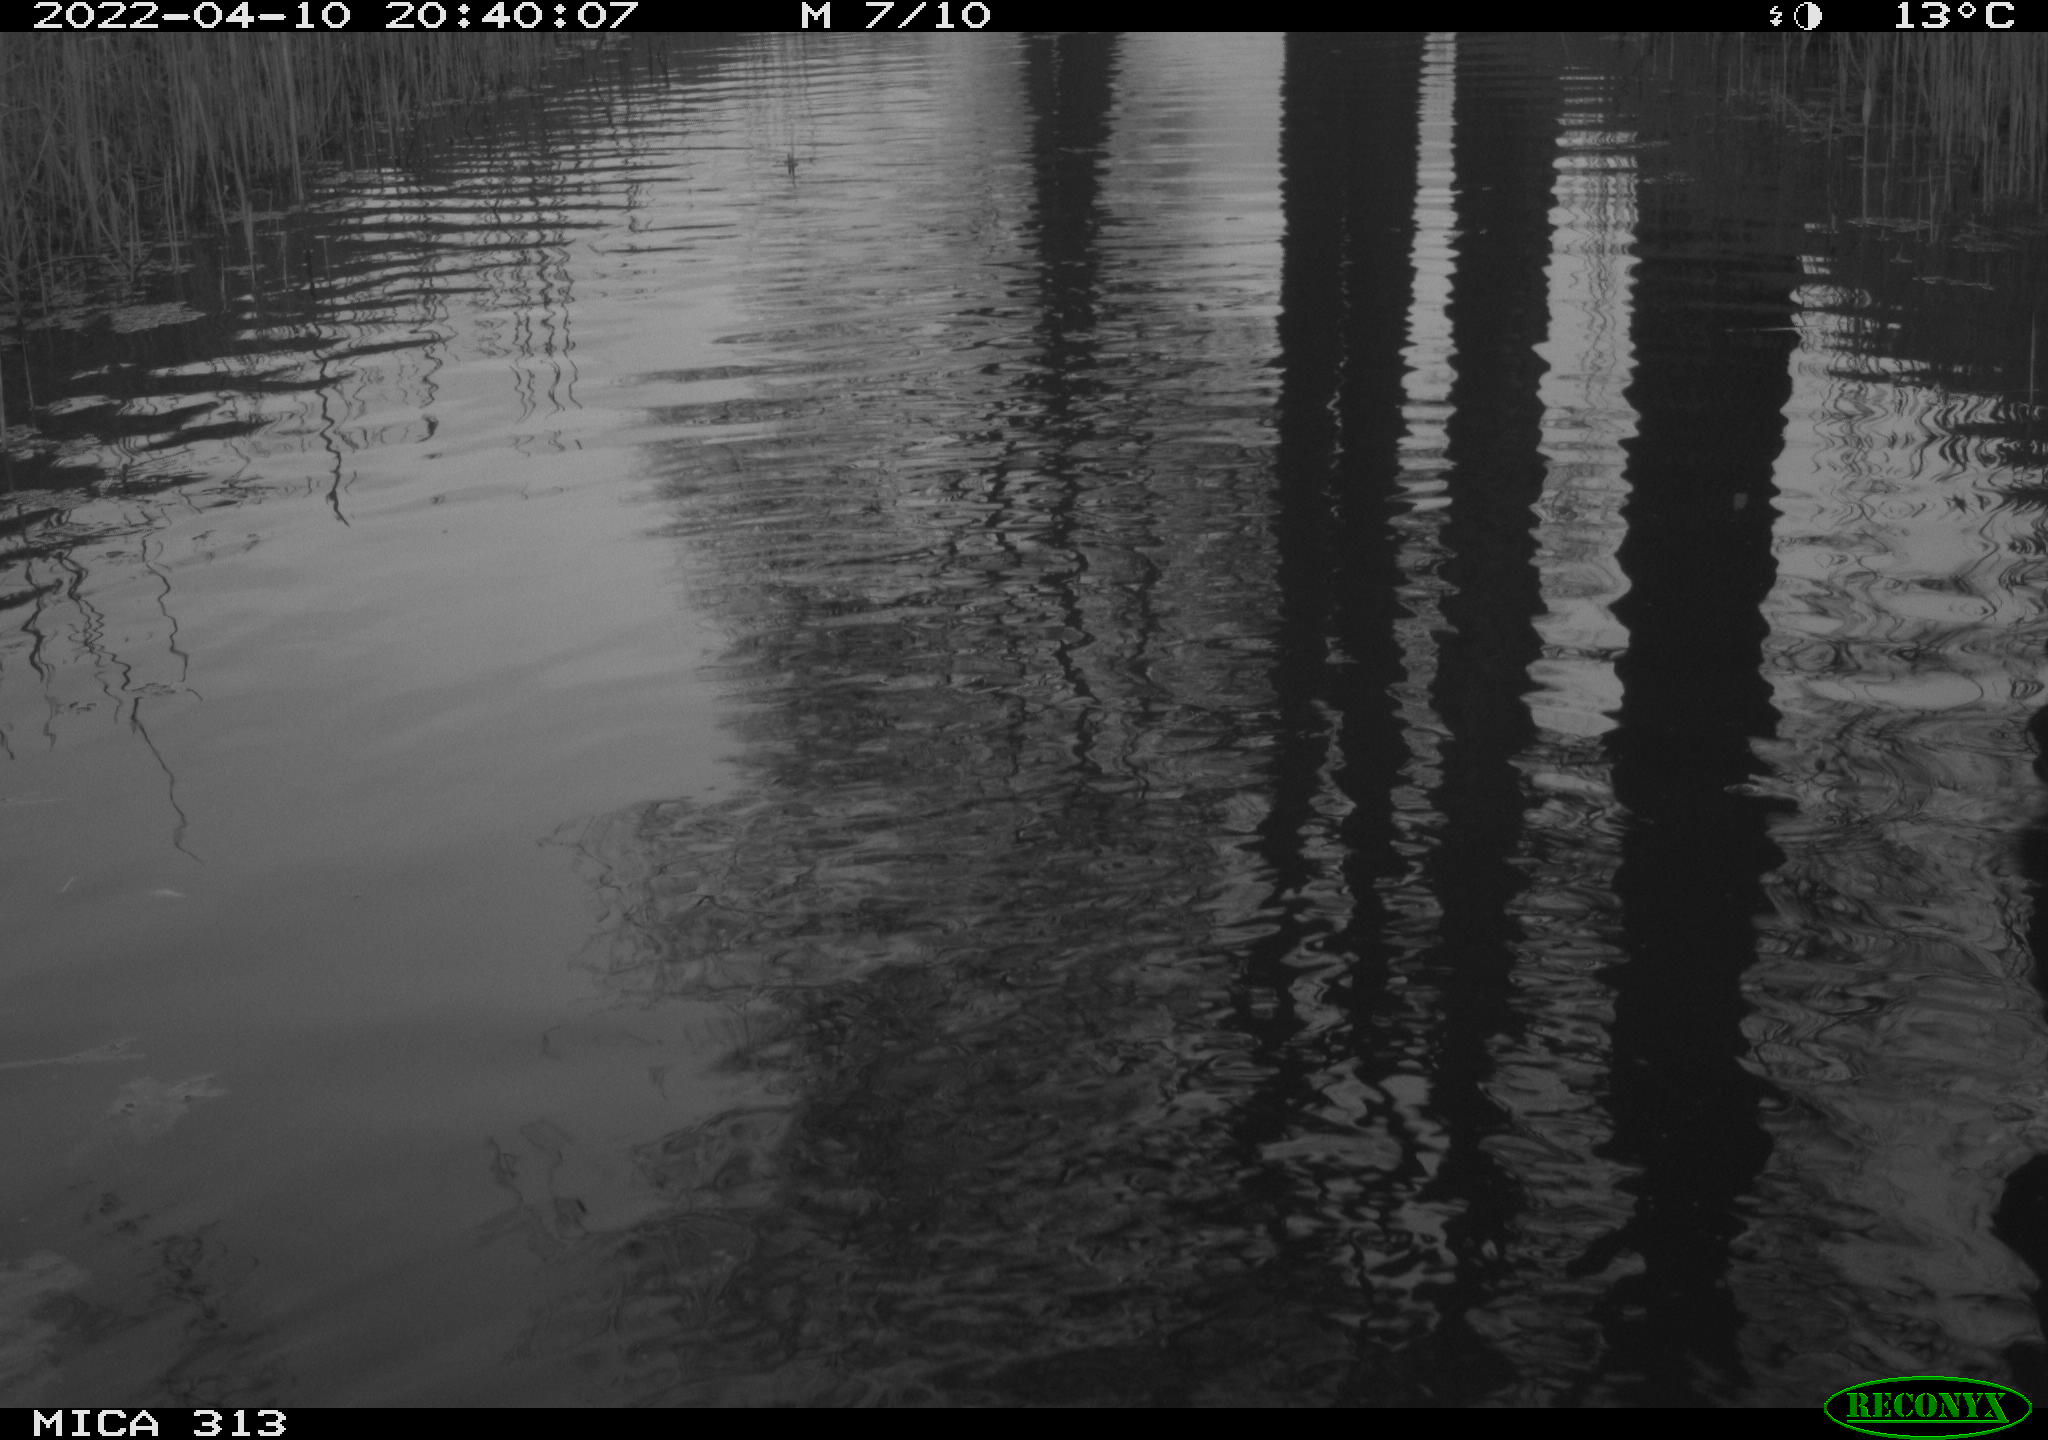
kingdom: Animalia
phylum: Chordata
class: Mammalia
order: Rodentia
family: Cricetidae
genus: Ondatra
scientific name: Ondatra zibethicus
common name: Muskrat
